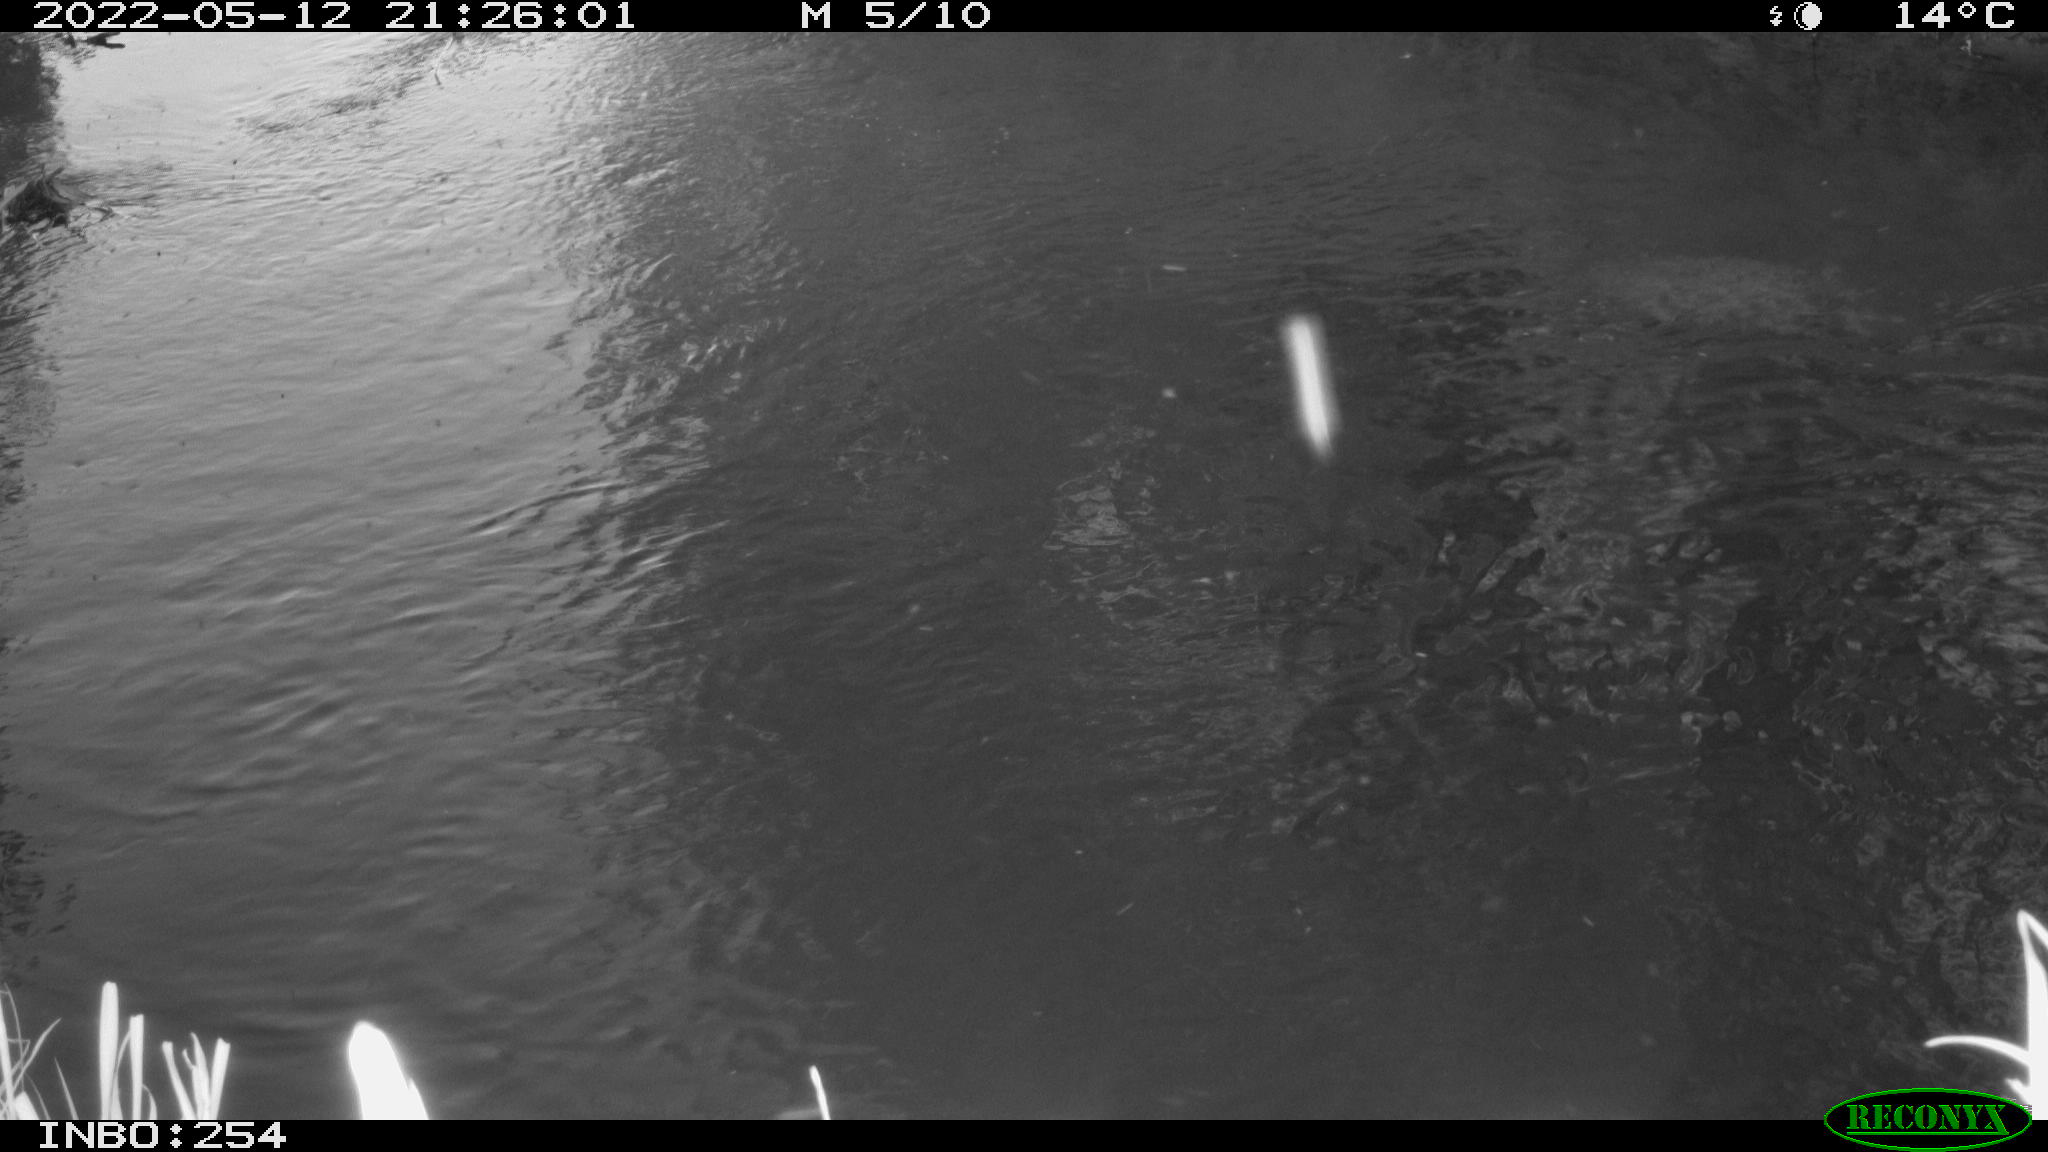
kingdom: Animalia
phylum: Chordata
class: Aves
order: Anseriformes
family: Anatidae
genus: Anas
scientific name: Anas platyrhynchos
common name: Mallard
